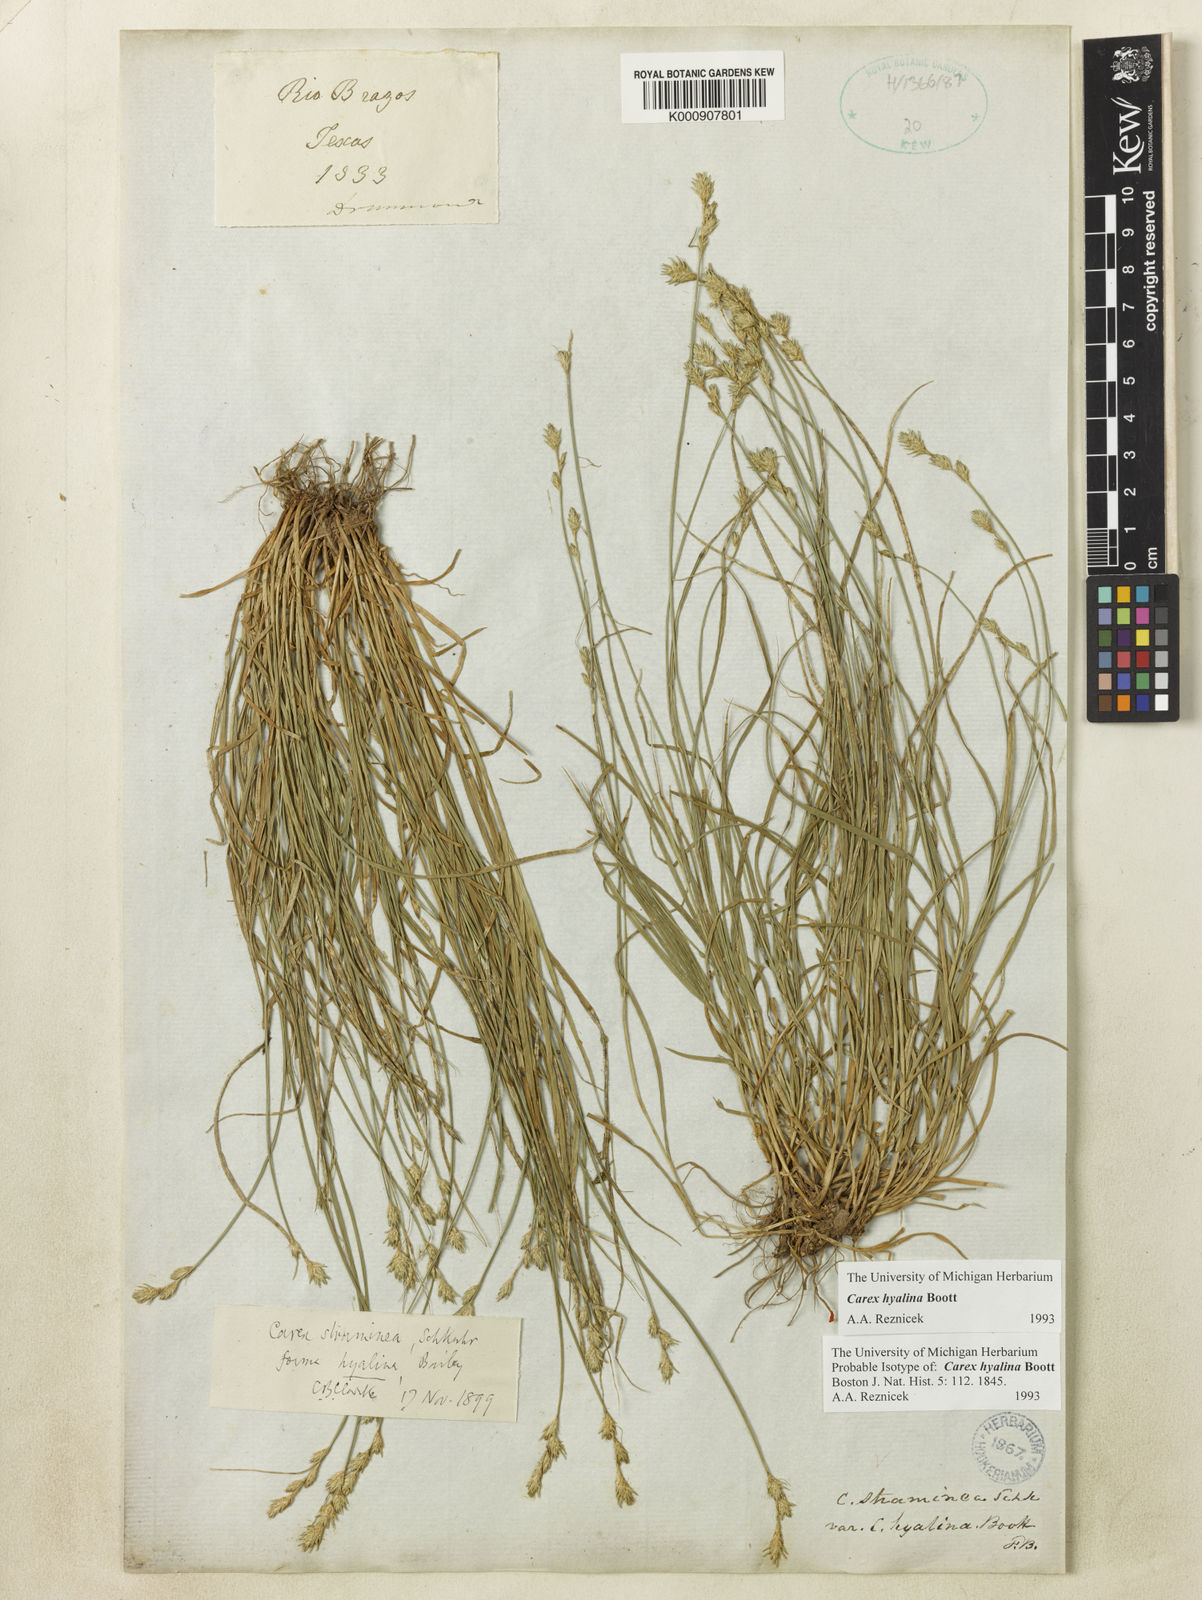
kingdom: Plantae
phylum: Tracheophyta
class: Liliopsida
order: Poales
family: Cyperaceae
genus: Carex
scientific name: Carex hyalina
